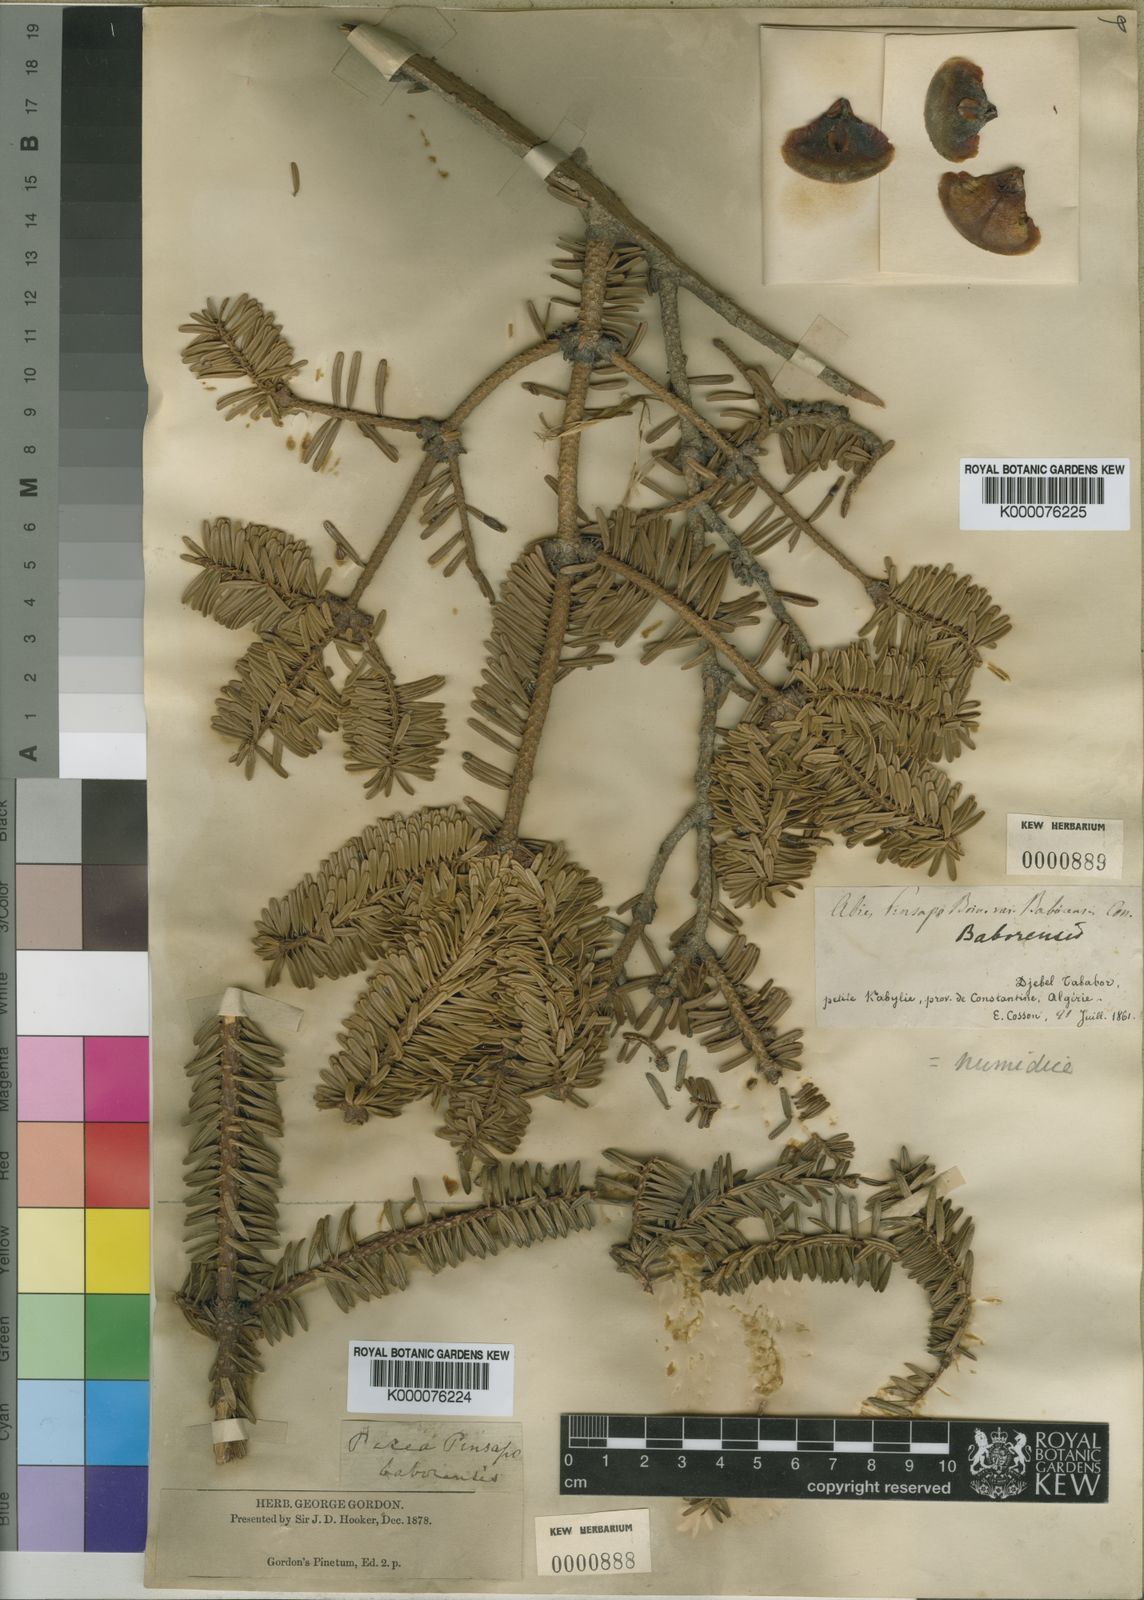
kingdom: Plantae
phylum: Tracheophyta
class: Pinopsida
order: Pinales
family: Pinaceae
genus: Abies
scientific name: Abies
